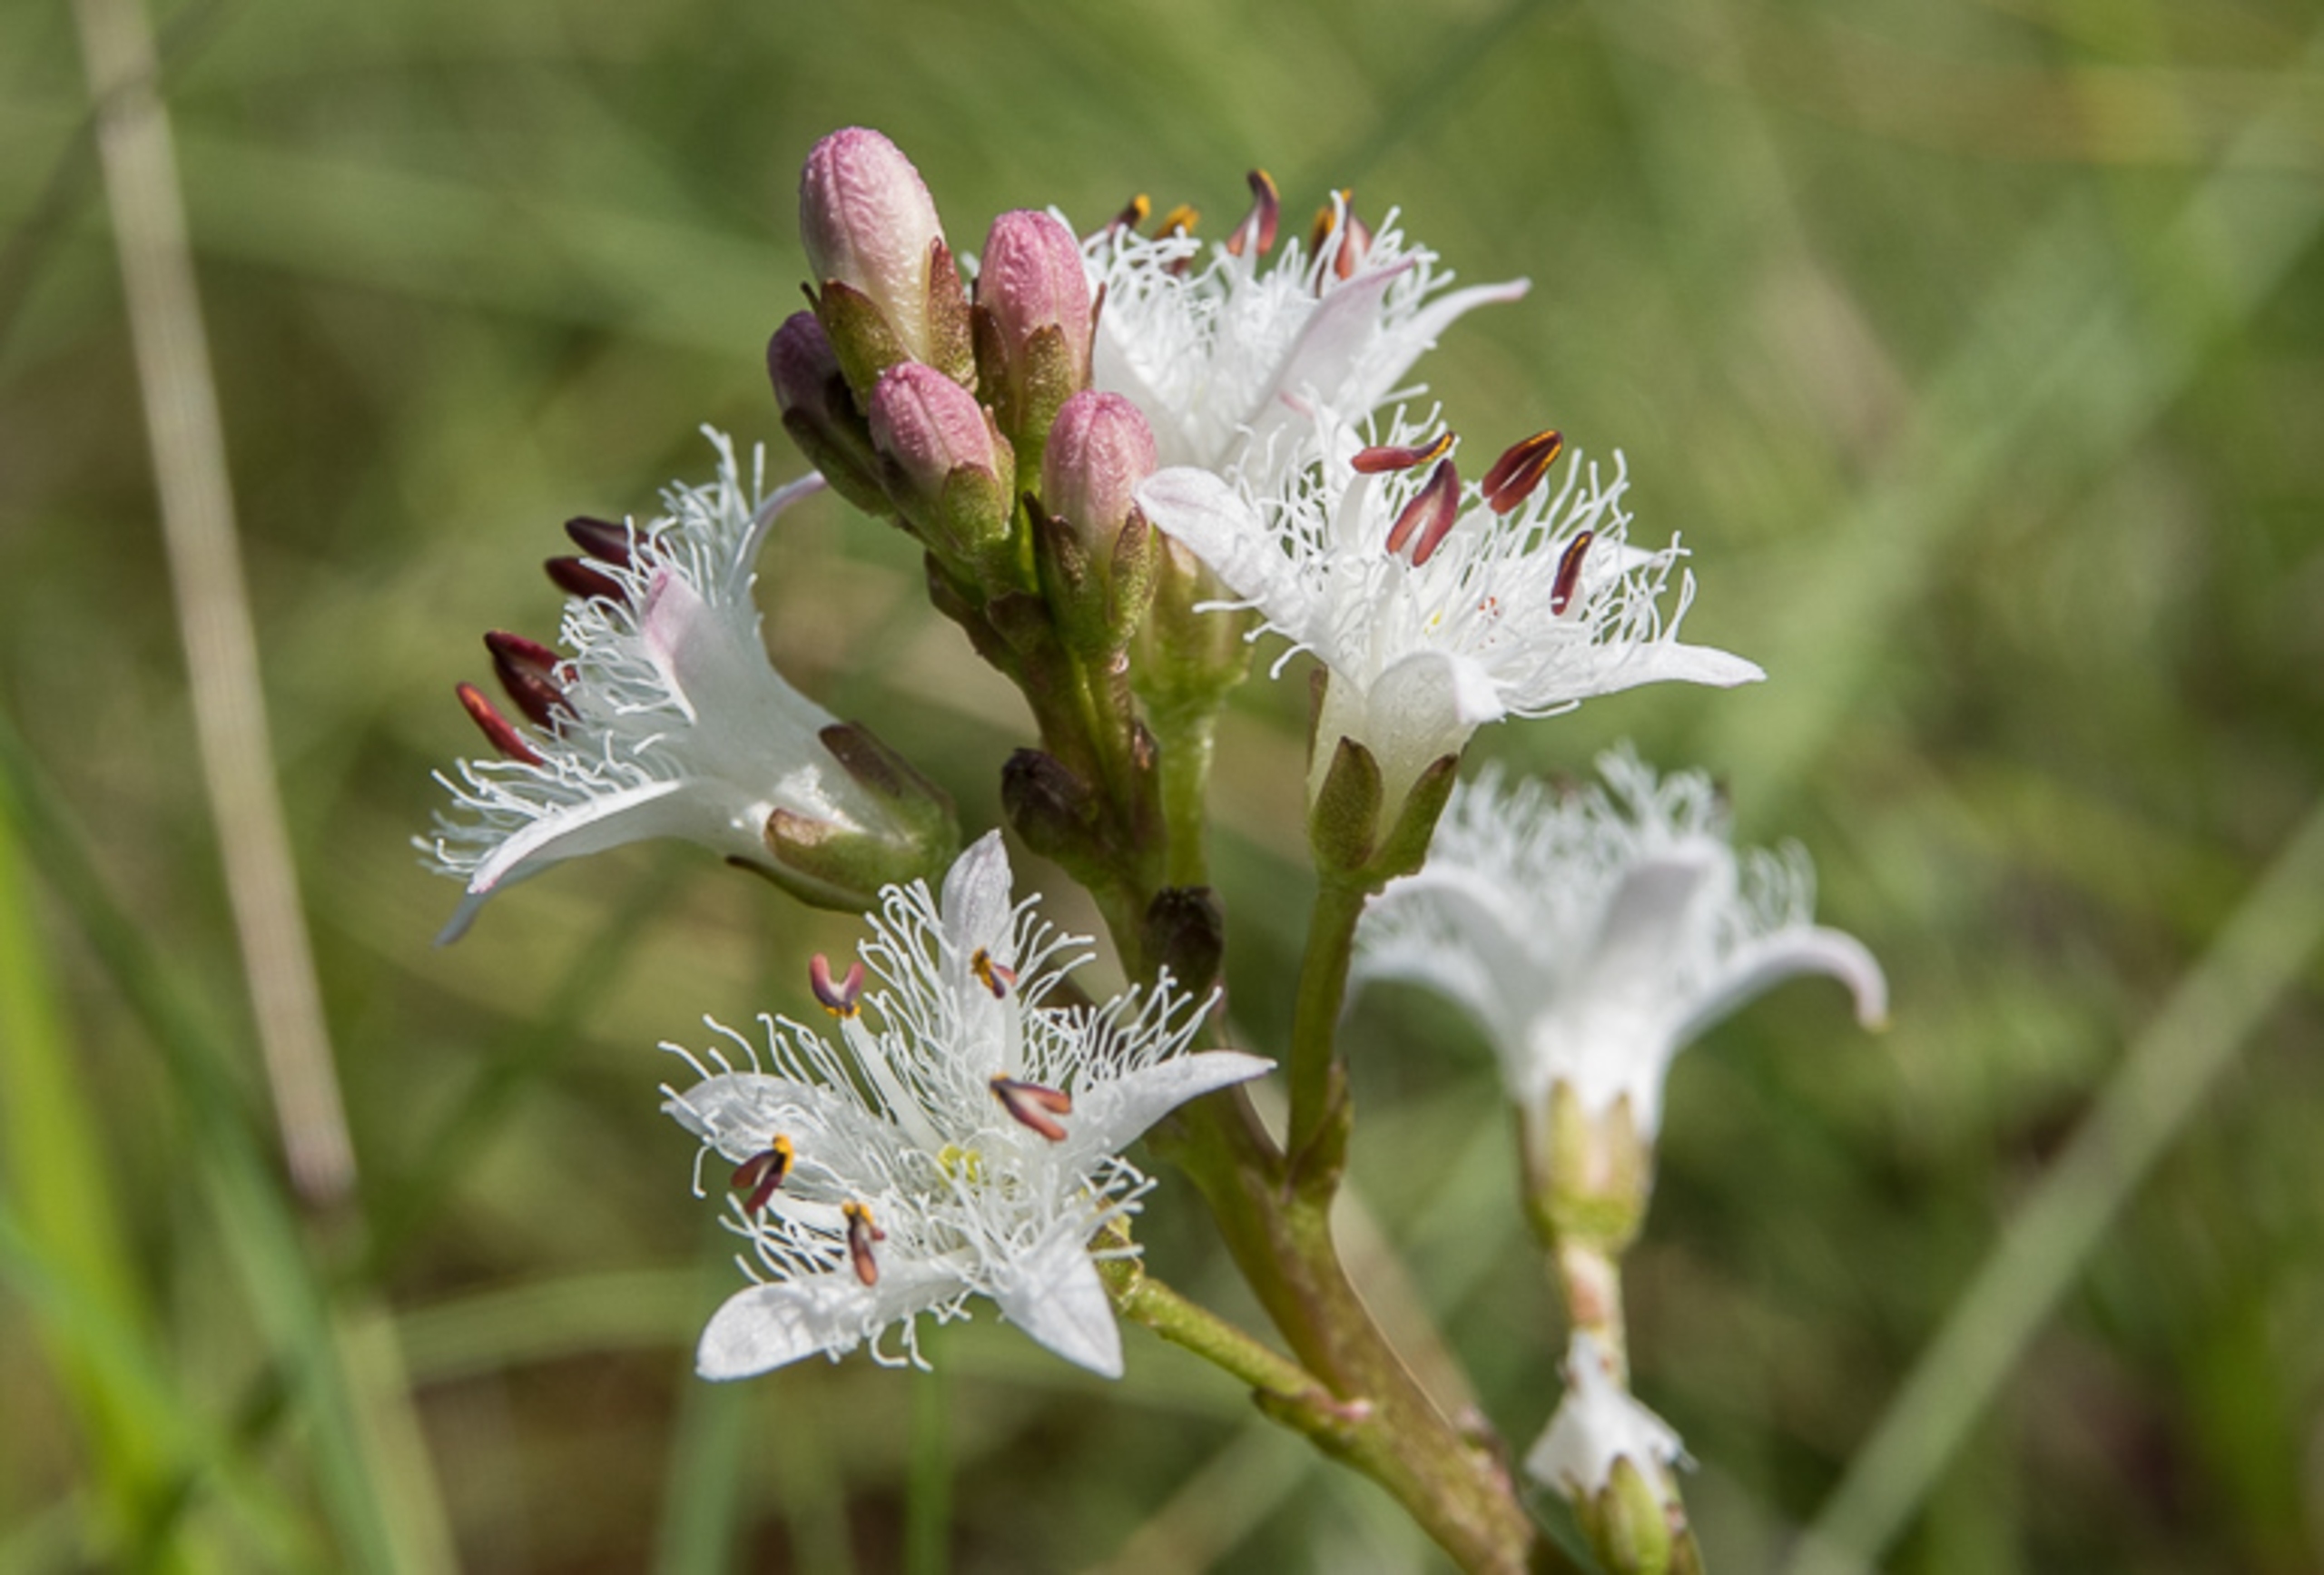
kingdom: Plantae
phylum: Tracheophyta
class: Magnoliopsida
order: Asterales
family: Menyanthaceae
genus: Menyanthes
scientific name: Menyanthes trifoliata
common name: Bukkeblad
